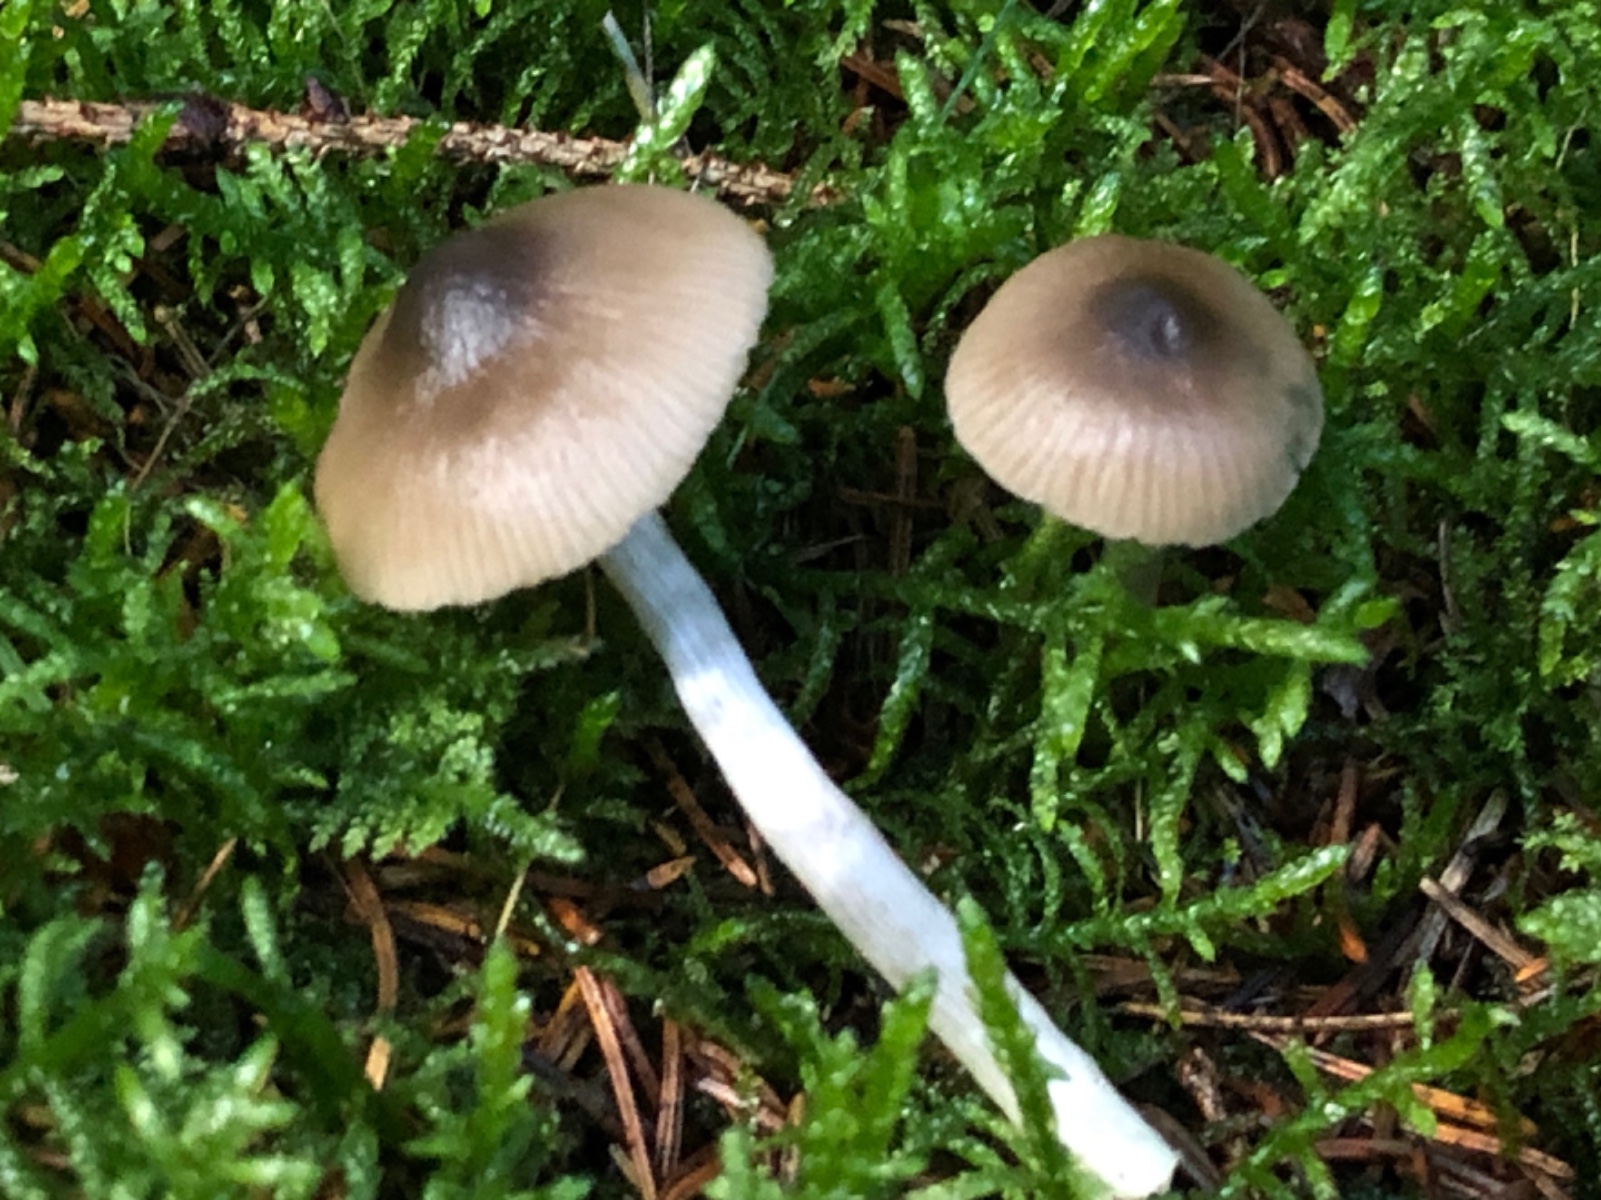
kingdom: Fungi
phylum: Basidiomycota
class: Agaricomycetes
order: Agaricales
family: Entolomataceae
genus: Entocybe
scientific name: Entocybe turbida
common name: plantage-rødblad
